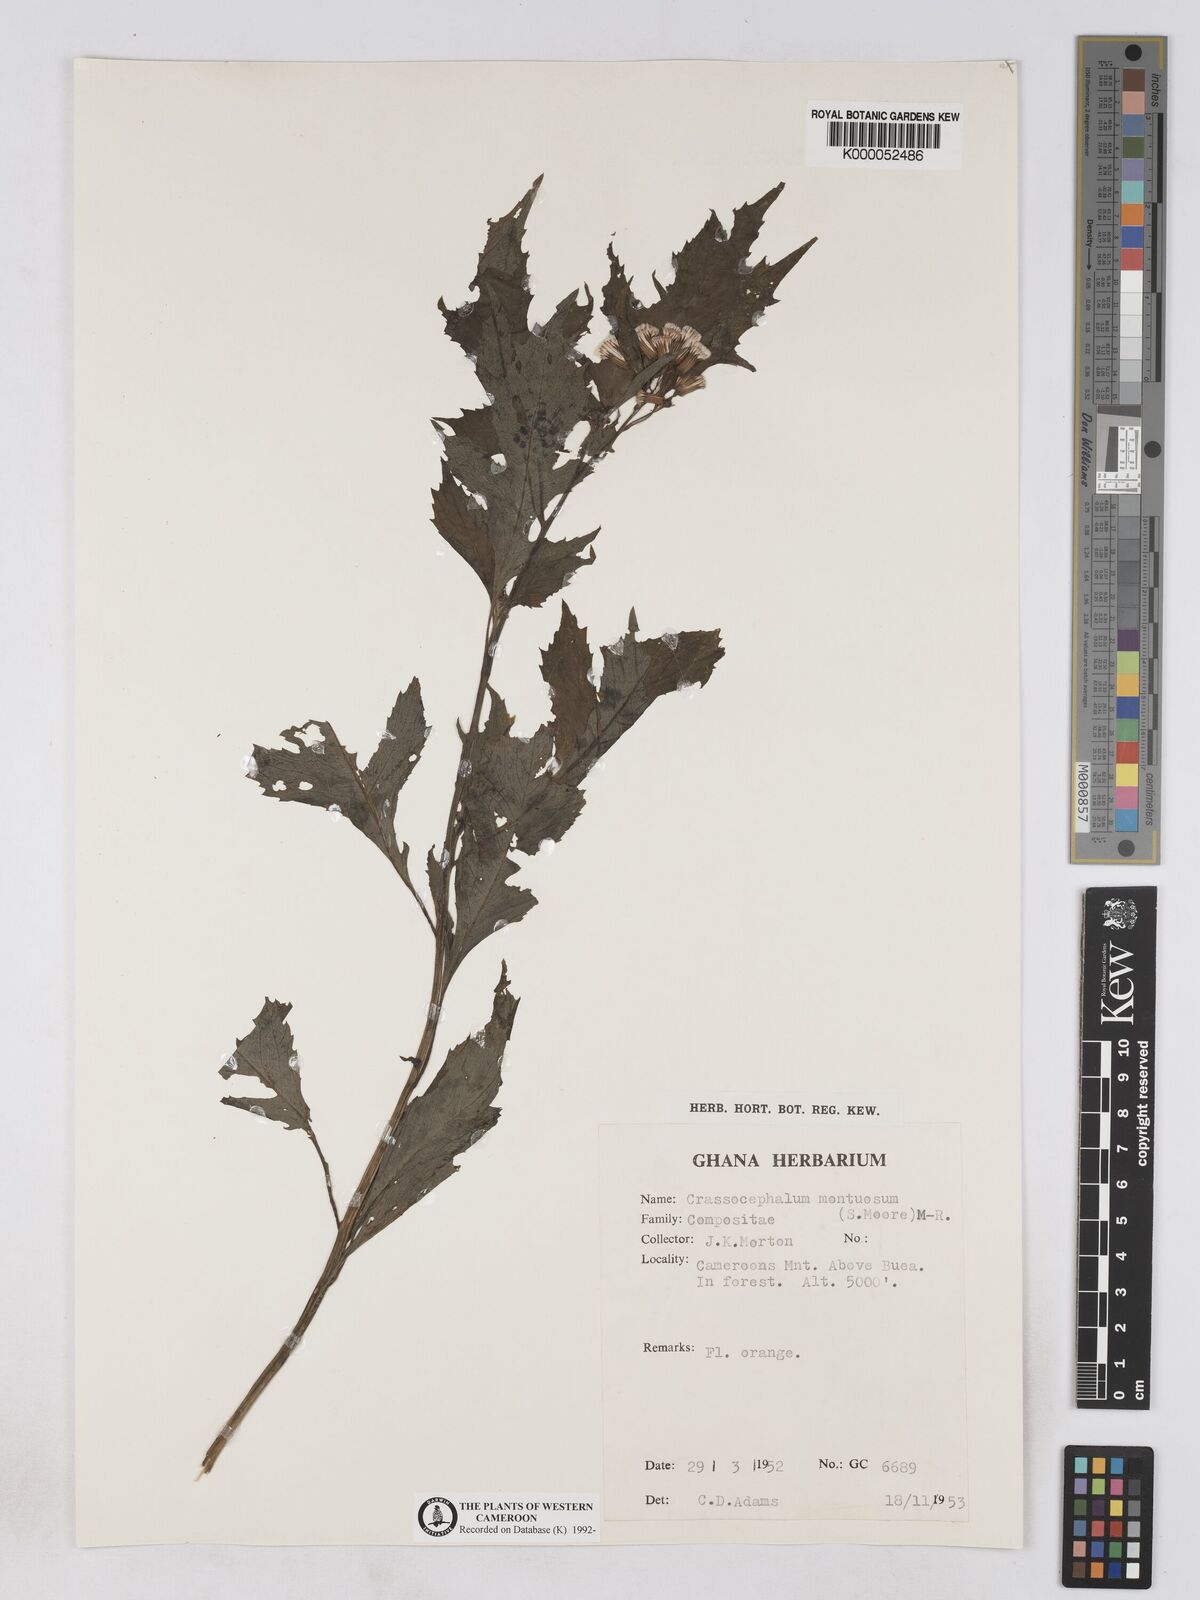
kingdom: Plantae
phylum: Tracheophyta
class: Magnoliopsida
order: Asterales
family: Asteraceae
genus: Crassocephalum
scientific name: Crassocephalum montuosum
